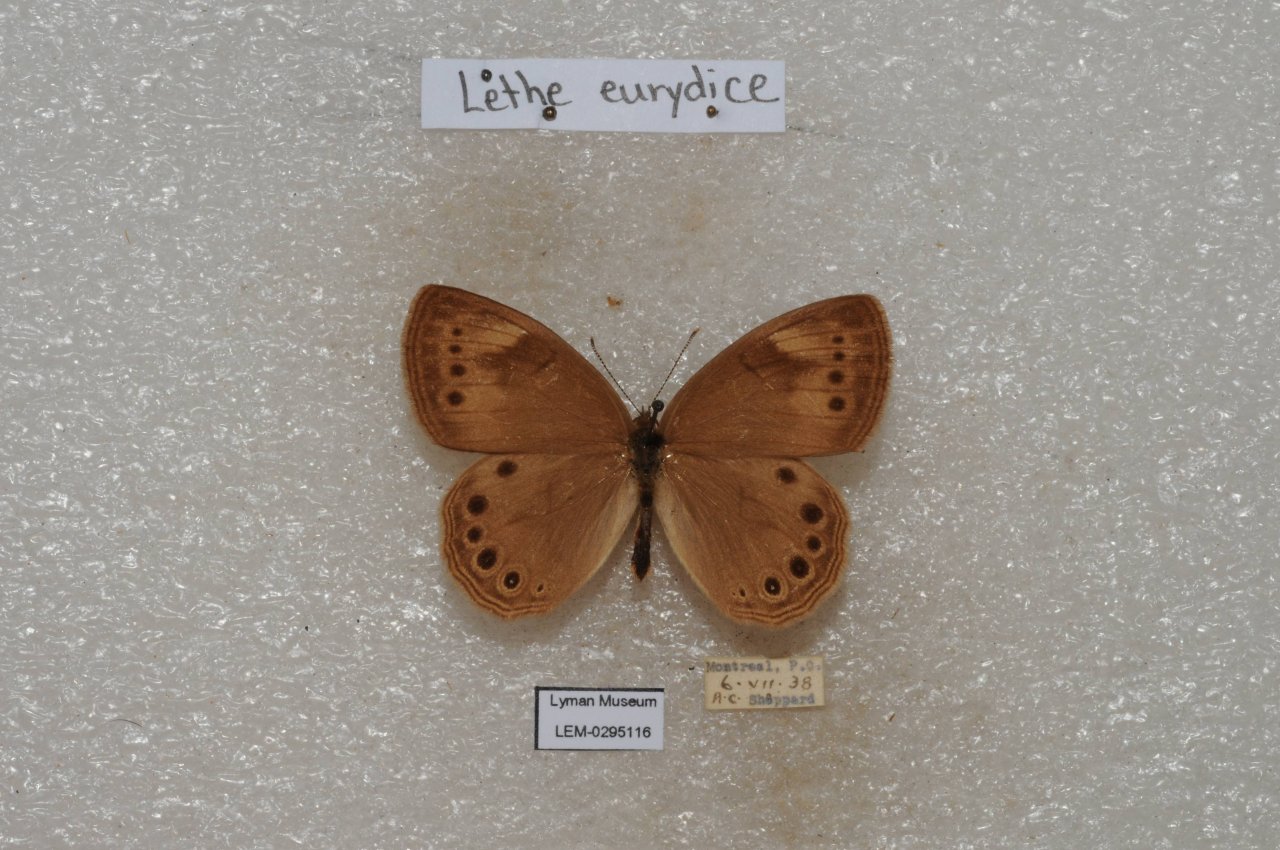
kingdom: Animalia
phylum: Arthropoda
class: Insecta
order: Lepidoptera
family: Nymphalidae
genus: Lethe
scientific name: Lethe eurydice
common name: Eyed Brown
